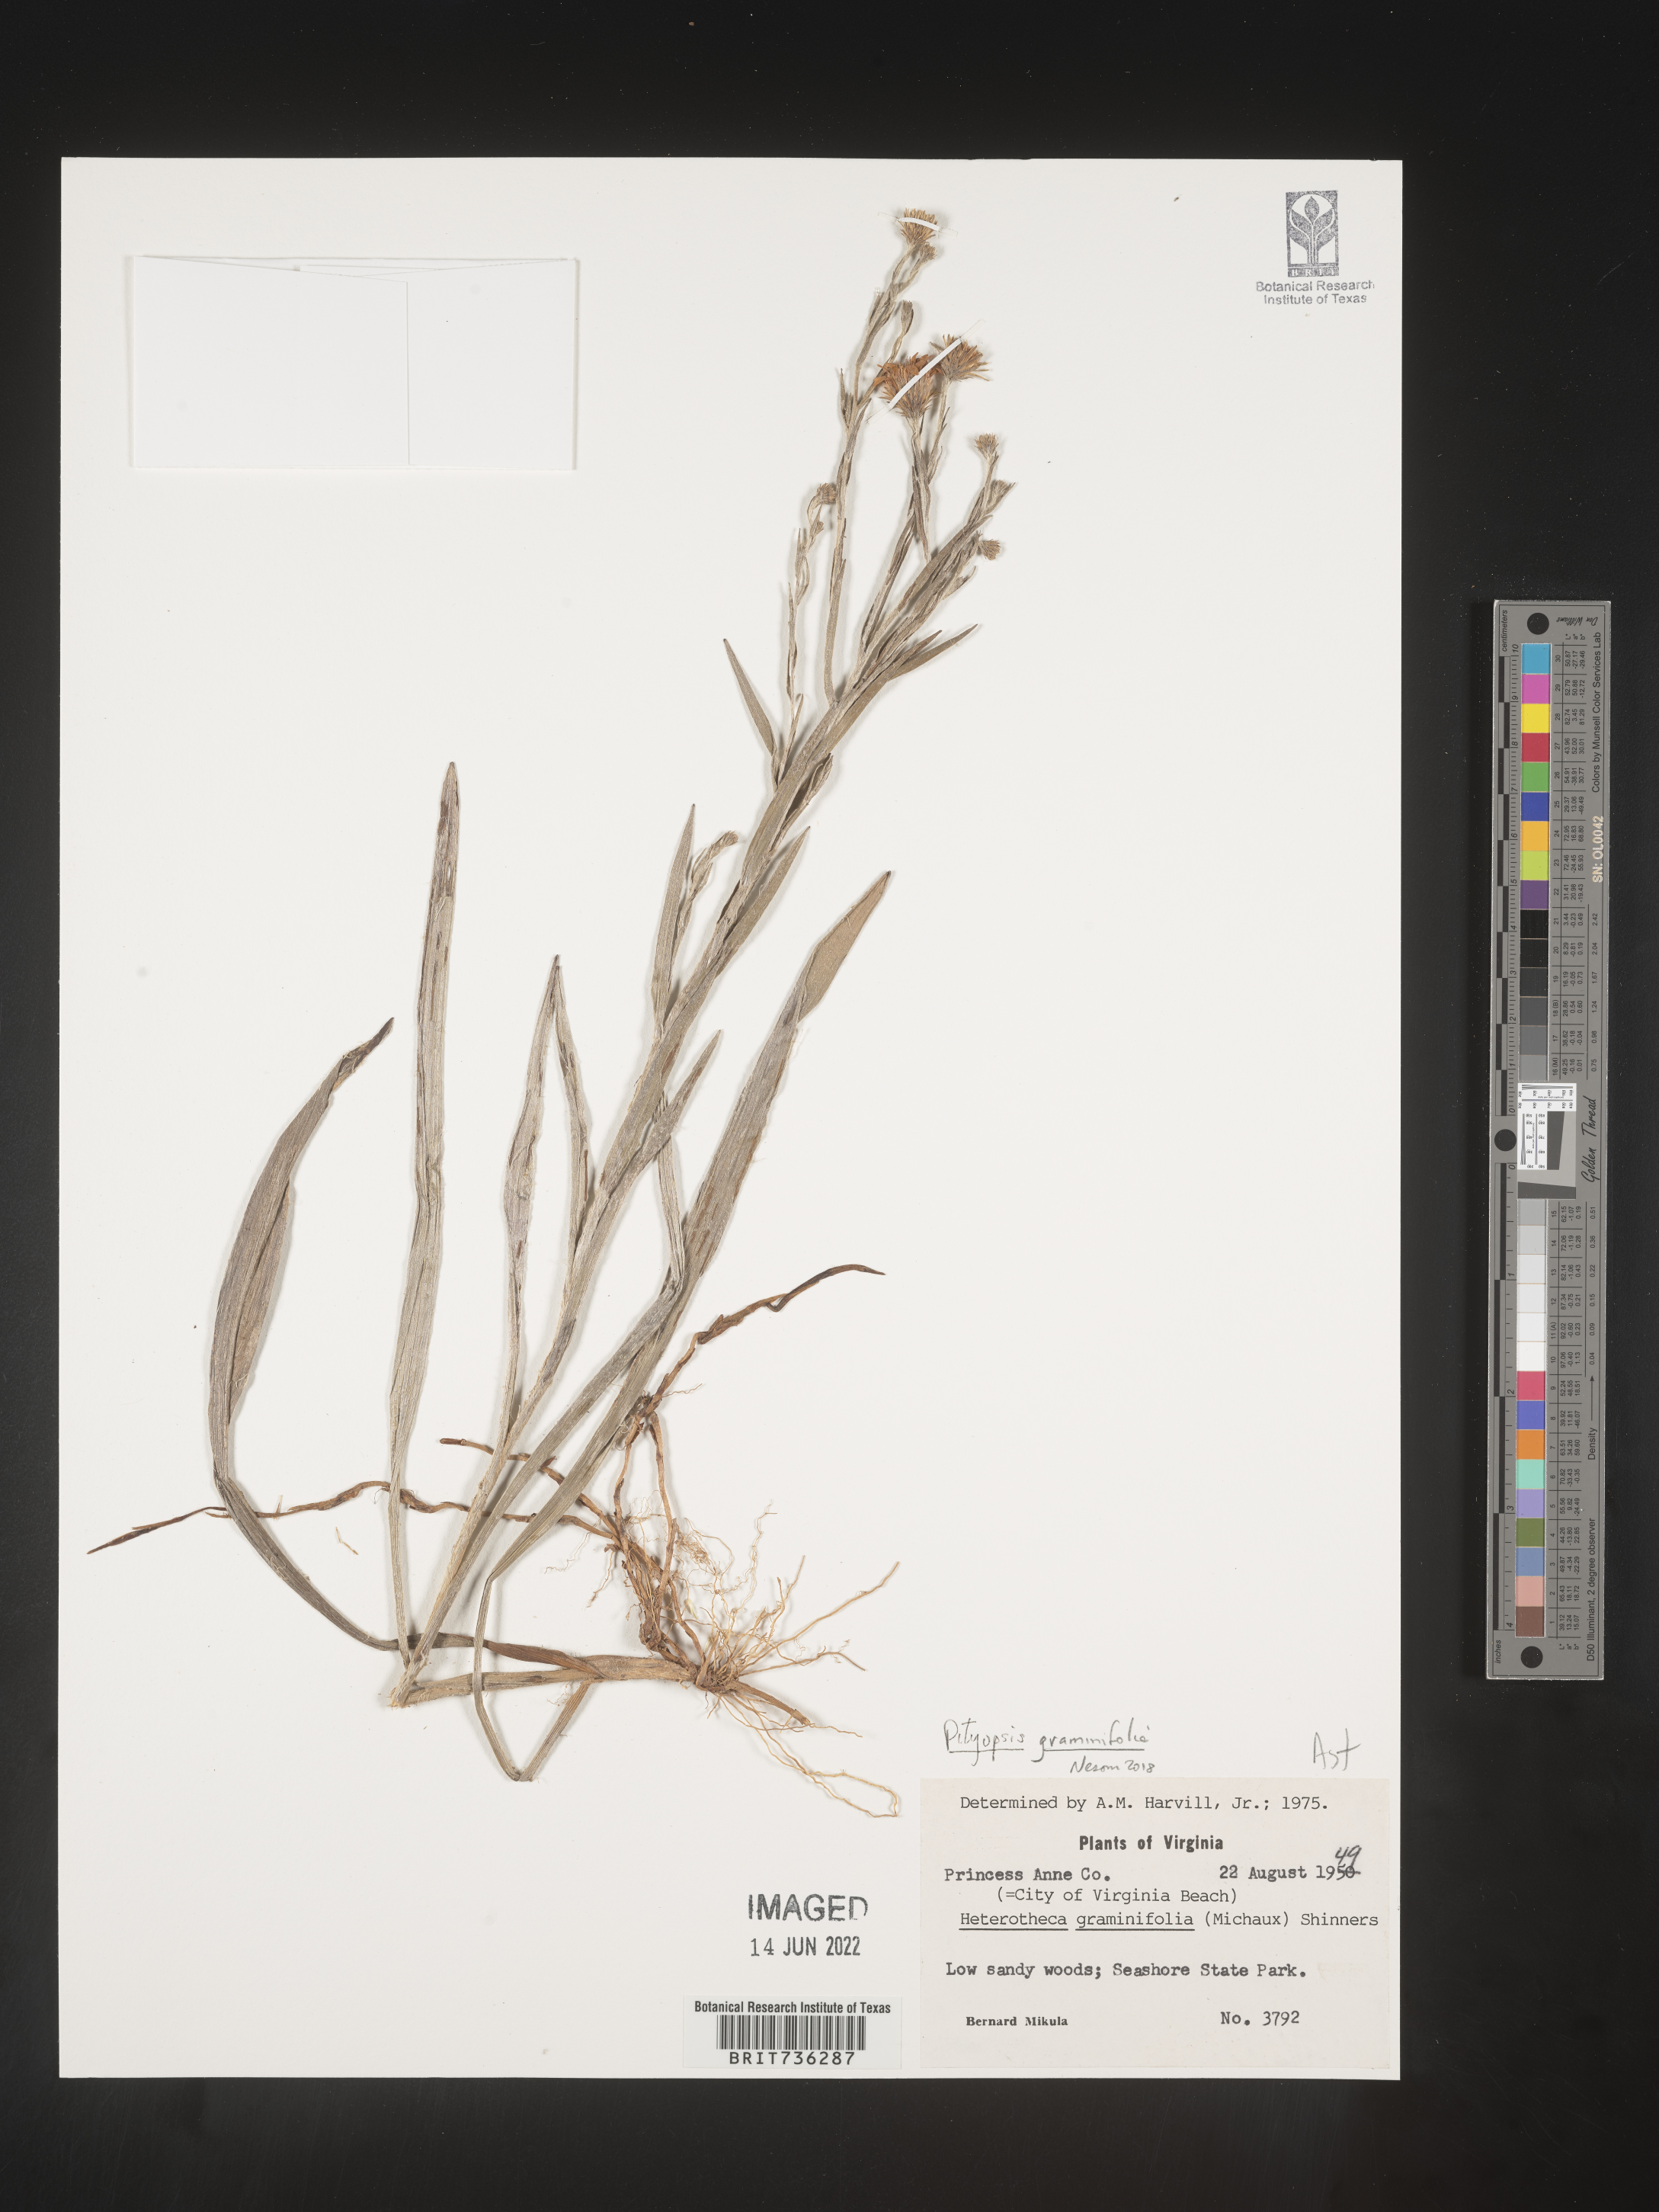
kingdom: Plantae
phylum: Tracheophyta
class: Magnoliopsida
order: Asterales
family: Asteraceae
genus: Pityopsis
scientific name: Pityopsis graminifolia
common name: Grass-leaf golden-aster
